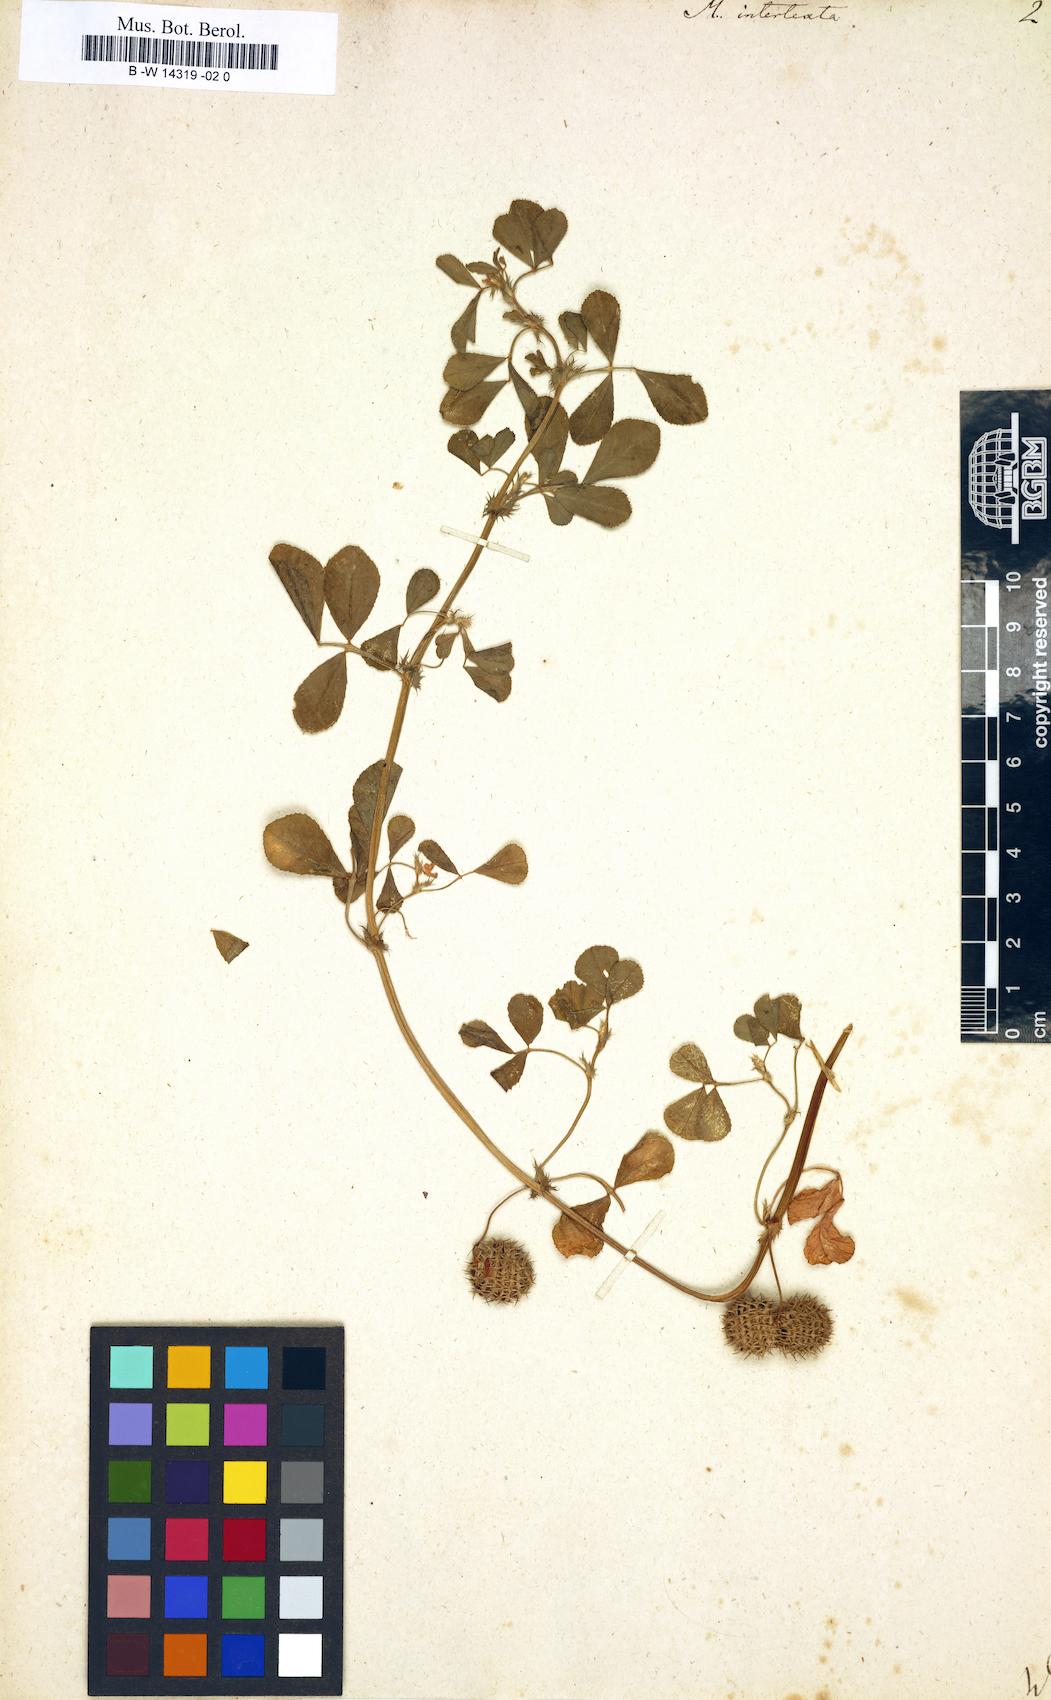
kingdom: Plantae
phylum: Tracheophyta
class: Magnoliopsida
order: Fabales
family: Fabaceae
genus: Medicago
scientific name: Medicago intertexta
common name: Hedgehog medick
